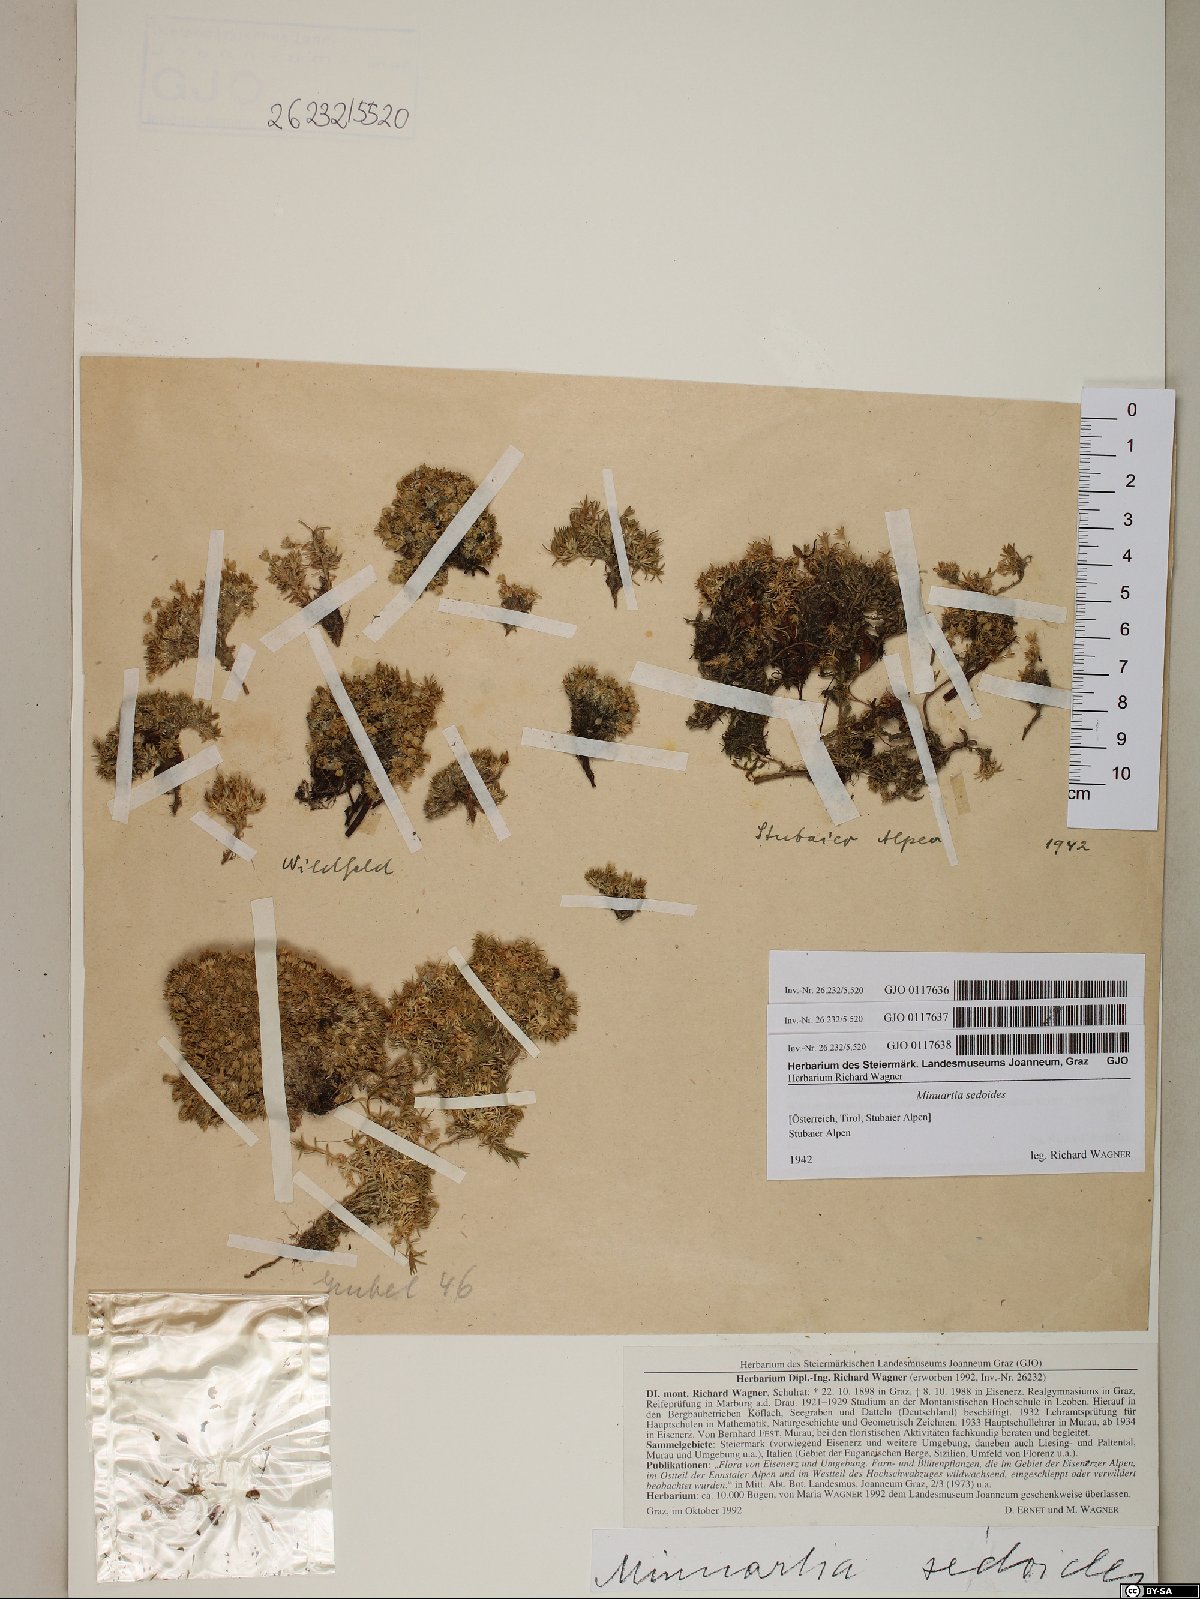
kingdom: Plantae
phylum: Tracheophyta
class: Magnoliopsida
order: Caryophyllales
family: Caryophyllaceae
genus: Cherleria
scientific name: Cherleria sedoides
